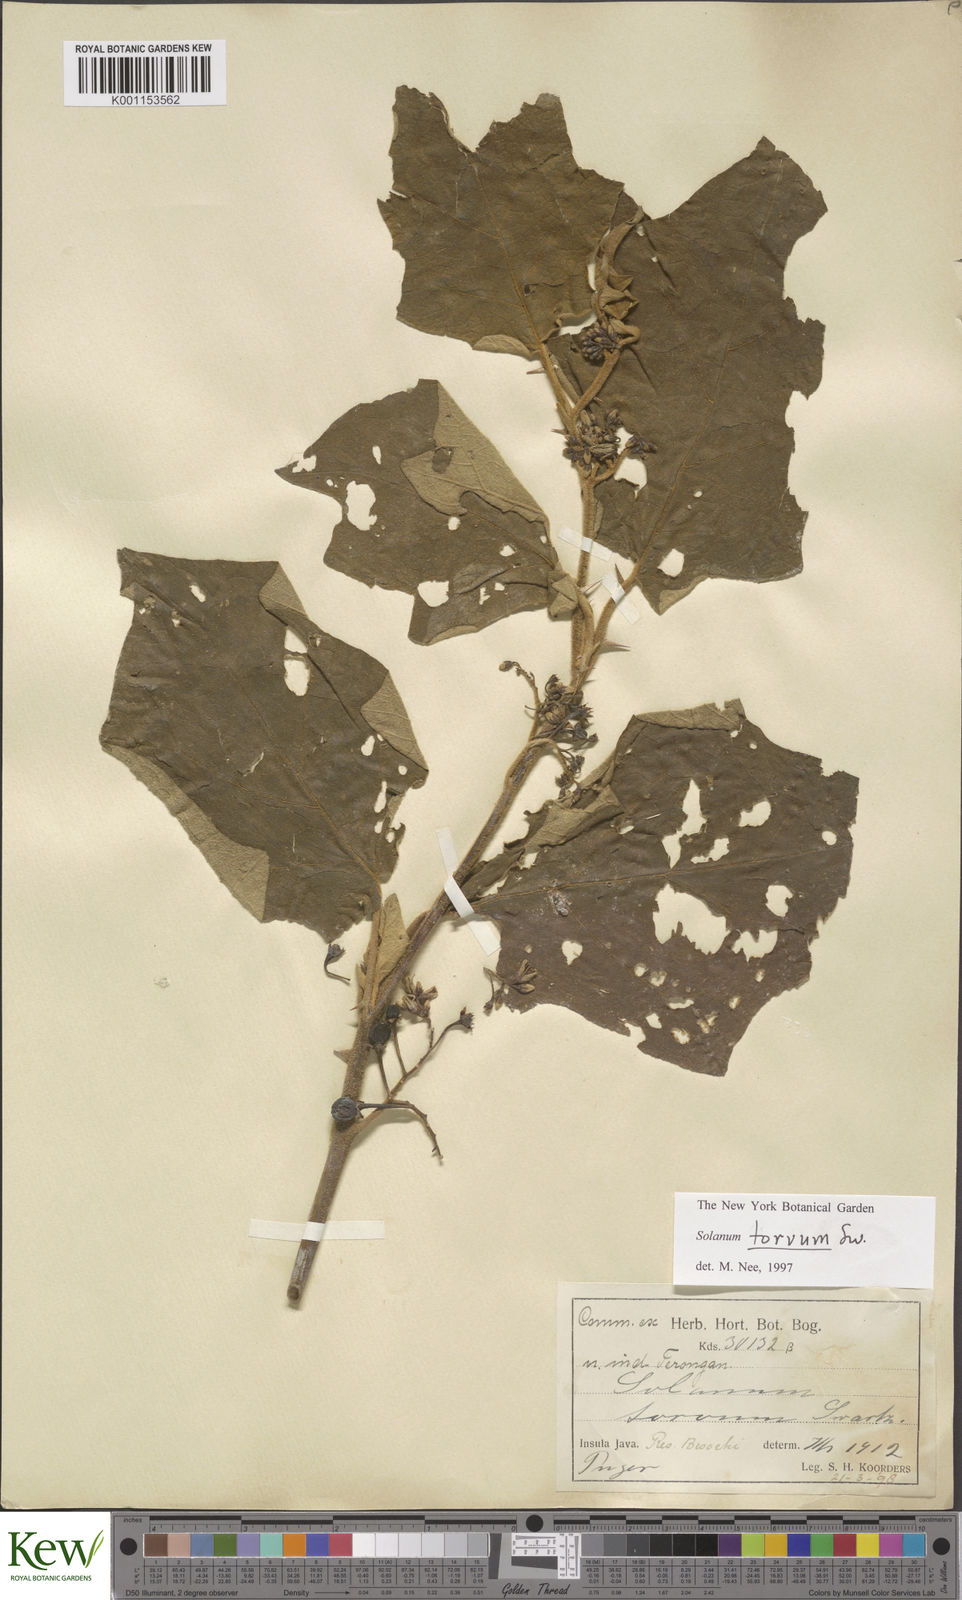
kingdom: Plantae
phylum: Tracheophyta
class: Magnoliopsida
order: Solanales
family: Solanaceae
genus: Solanum
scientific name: Solanum torvum
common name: Turkey berry
